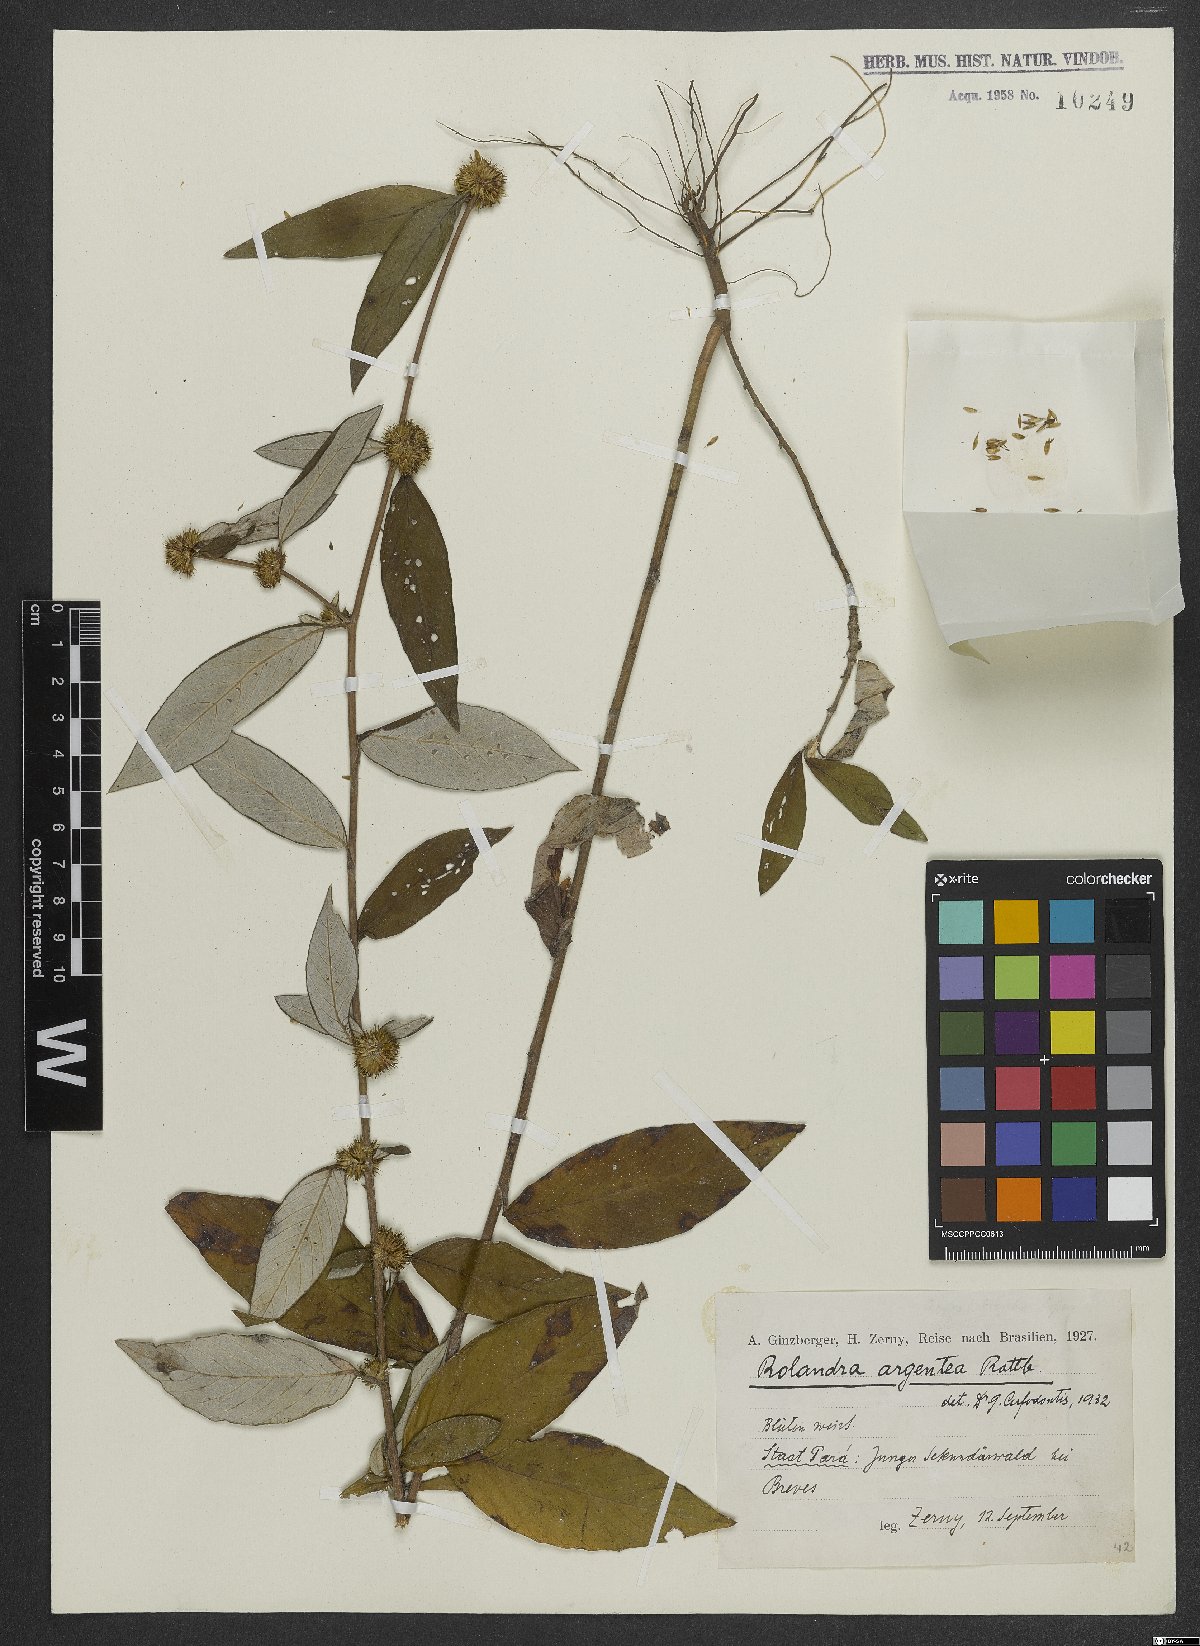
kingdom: Plantae
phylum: Tracheophyta
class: Magnoliopsida
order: Asterales
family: Asteraceae
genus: Rolandra
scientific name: Rolandra fruticosa
